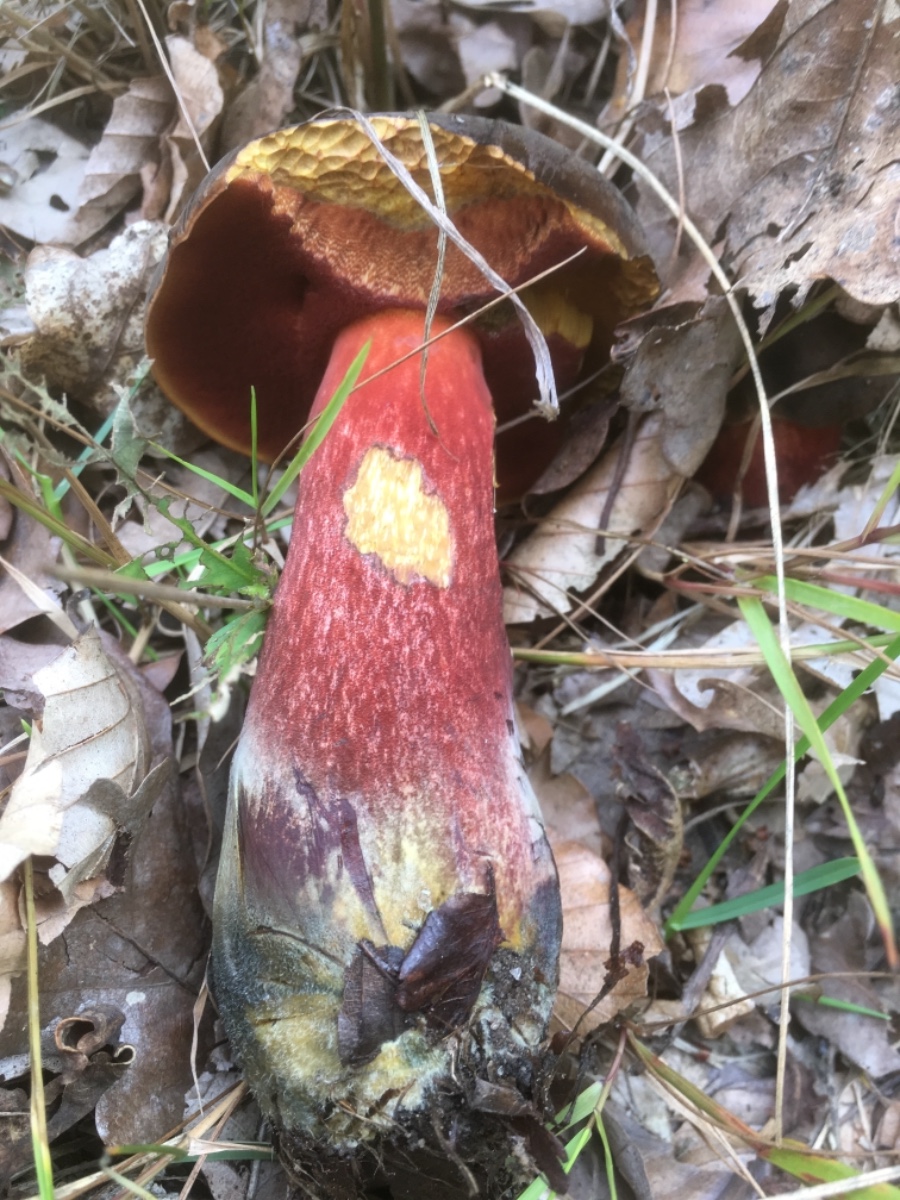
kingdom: Fungi
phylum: Basidiomycota
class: Agaricomycetes
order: Boletales
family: Boletaceae
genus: Neoboletus
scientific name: Neoboletus erythropus
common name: punktstokket indigorørhat
